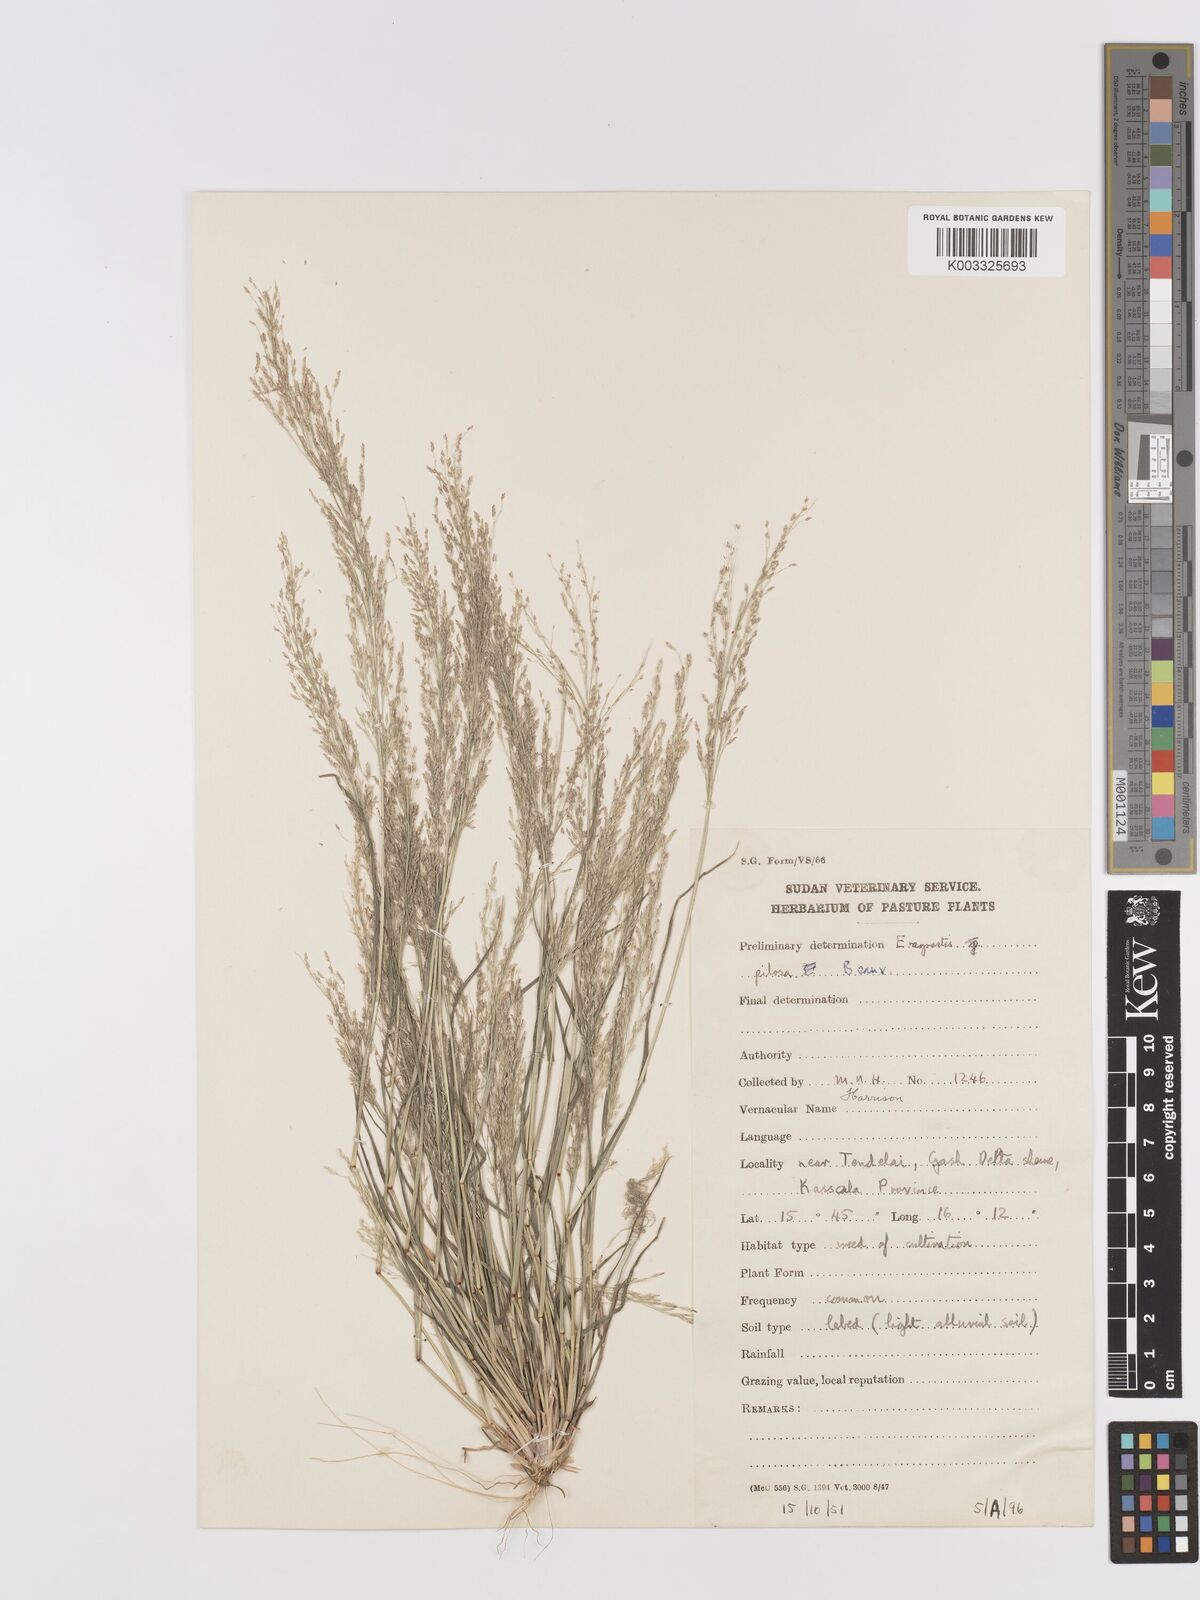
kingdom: Plantae
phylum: Tracheophyta
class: Liliopsida
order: Poales
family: Poaceae
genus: Eragrostis
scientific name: Eragrostis pilosa
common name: Indian lovegrass
